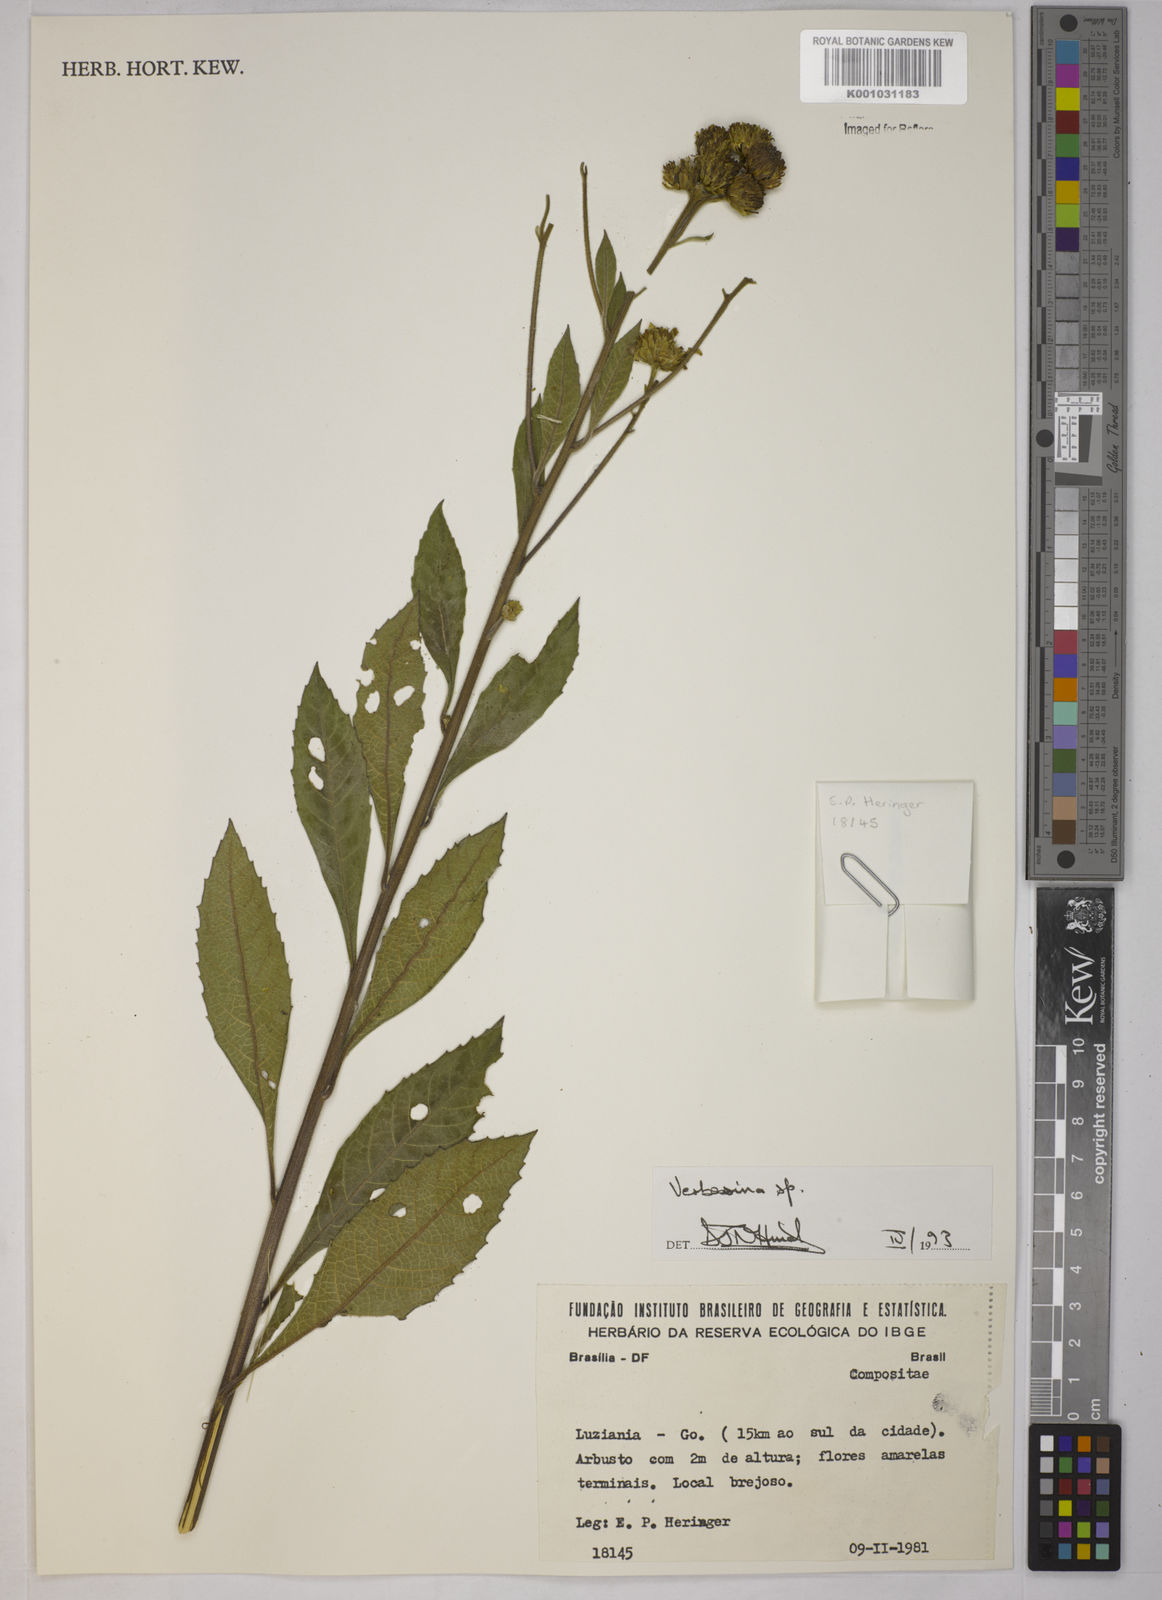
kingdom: Plantae
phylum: Tracheophyta
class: Magnoliopsida
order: Asterales
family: Asteraceae
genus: Verbesina
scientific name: Verbesina
